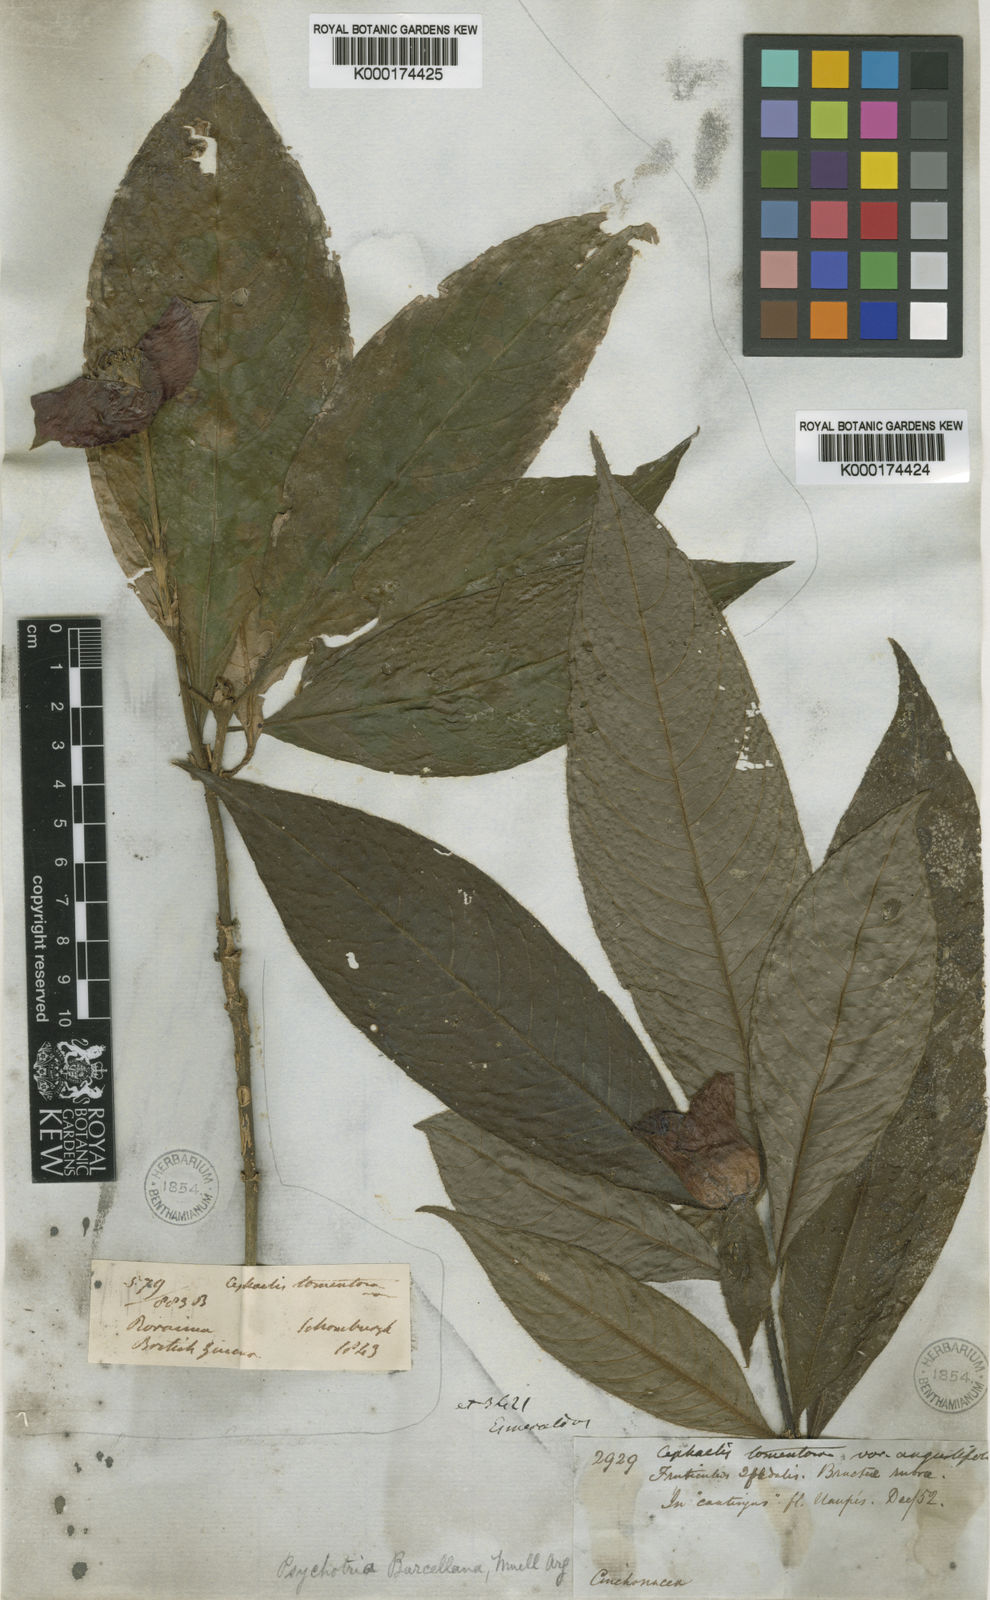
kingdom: Plantae
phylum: Tracheophyta
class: Magnoliopsida
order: Gentianales
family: Rubiaceae
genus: Psychotria
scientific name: Psychotria
